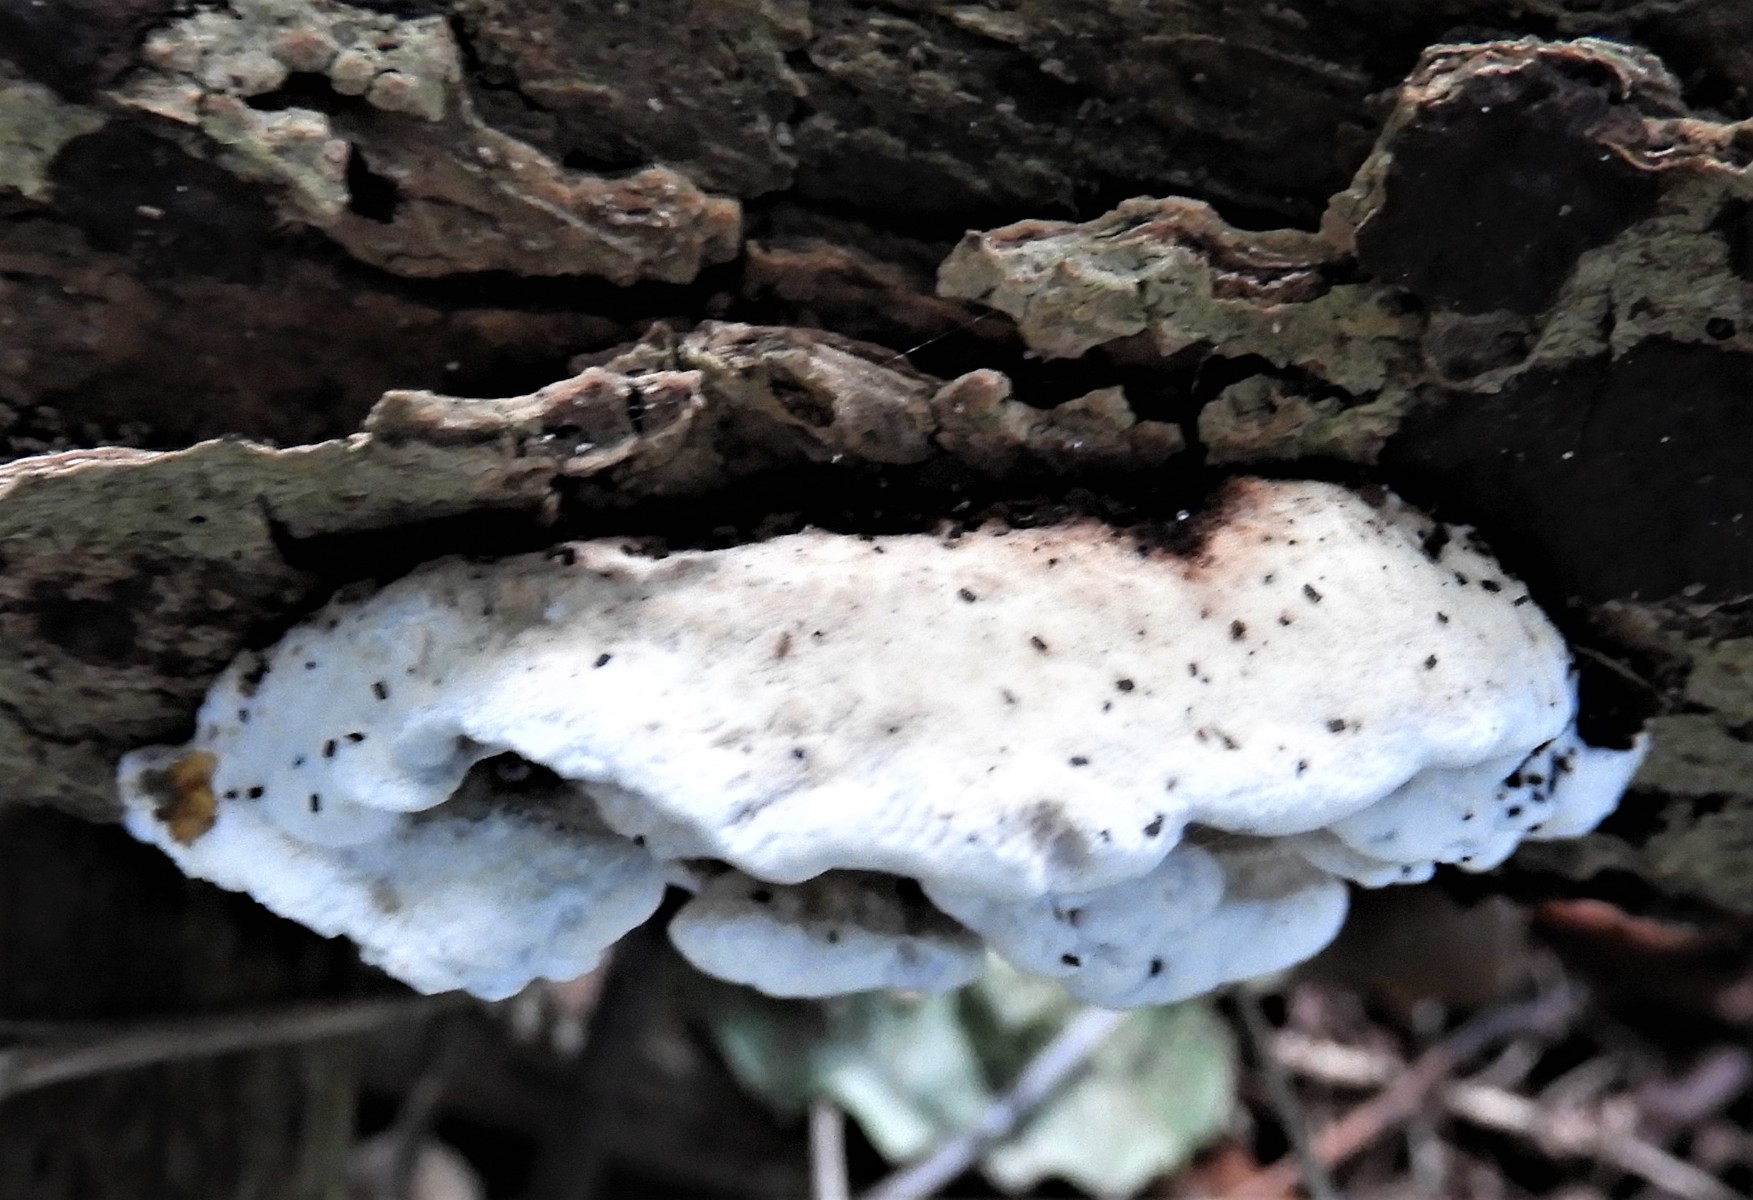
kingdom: Fungi
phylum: Basidiomycota
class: Agaricomycetes
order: Polyporales
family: Incrustoporiaceae
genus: Skeletocutis
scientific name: Skeletocutis nemoralis
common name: stor krystalporesvamp
